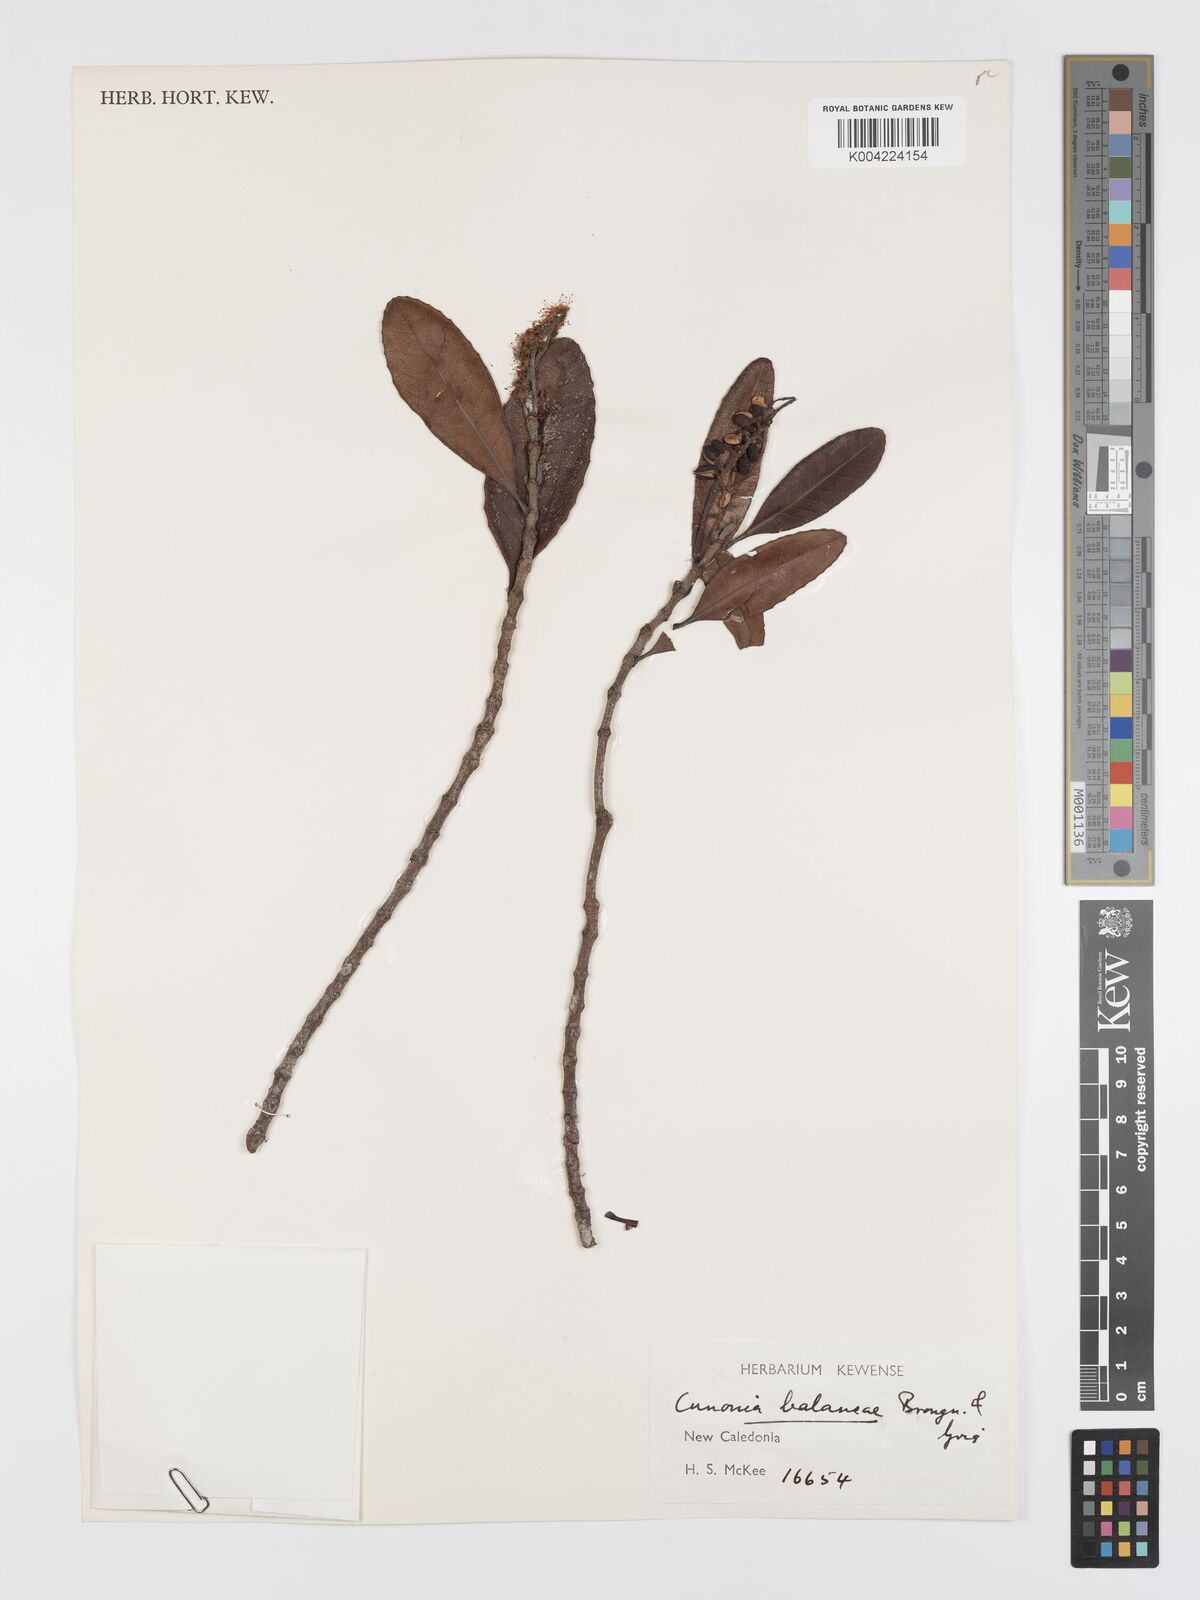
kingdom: Plantae
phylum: Tracheophyta
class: Magnoliopsida
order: Oxalidales
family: Cunoniaceae
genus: Cunonia
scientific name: Cunonia balansae
